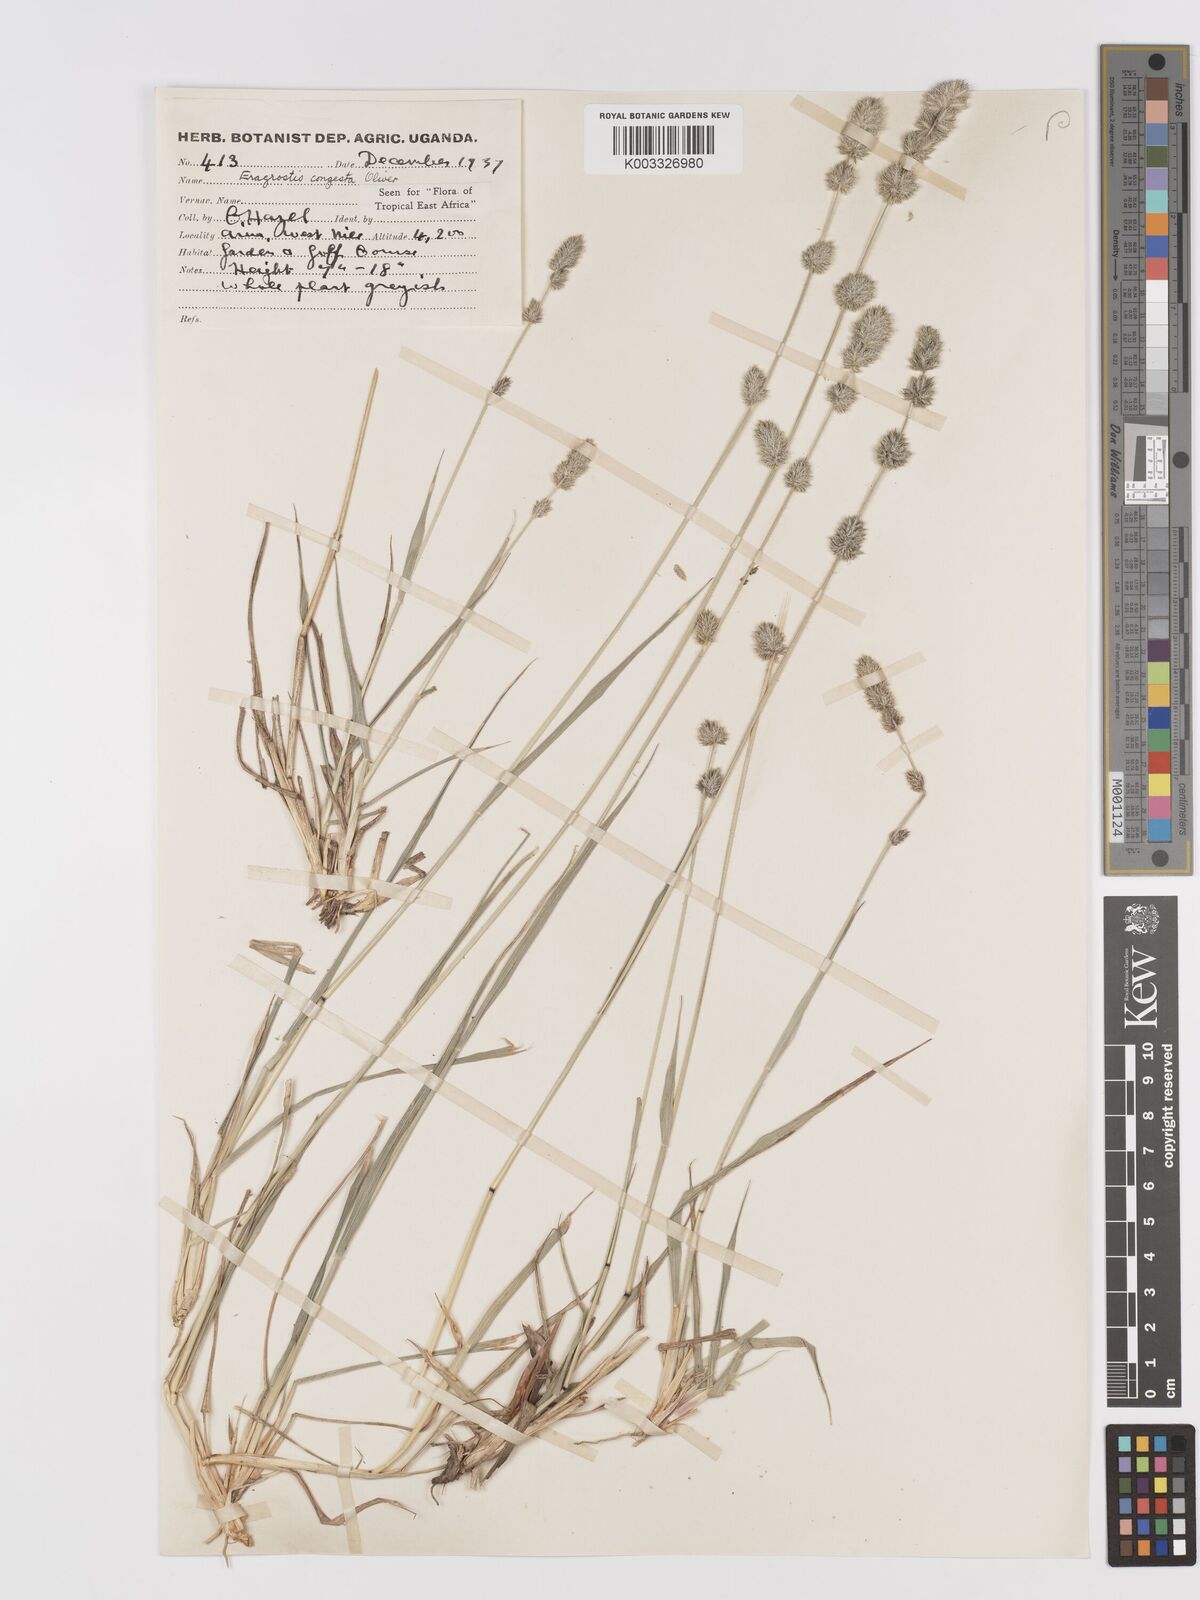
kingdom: Plantae
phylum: Tracheophyta
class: Liliopsida
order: Poales
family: Poaceae
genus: Eragrostis
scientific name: Eragrostis congesta
